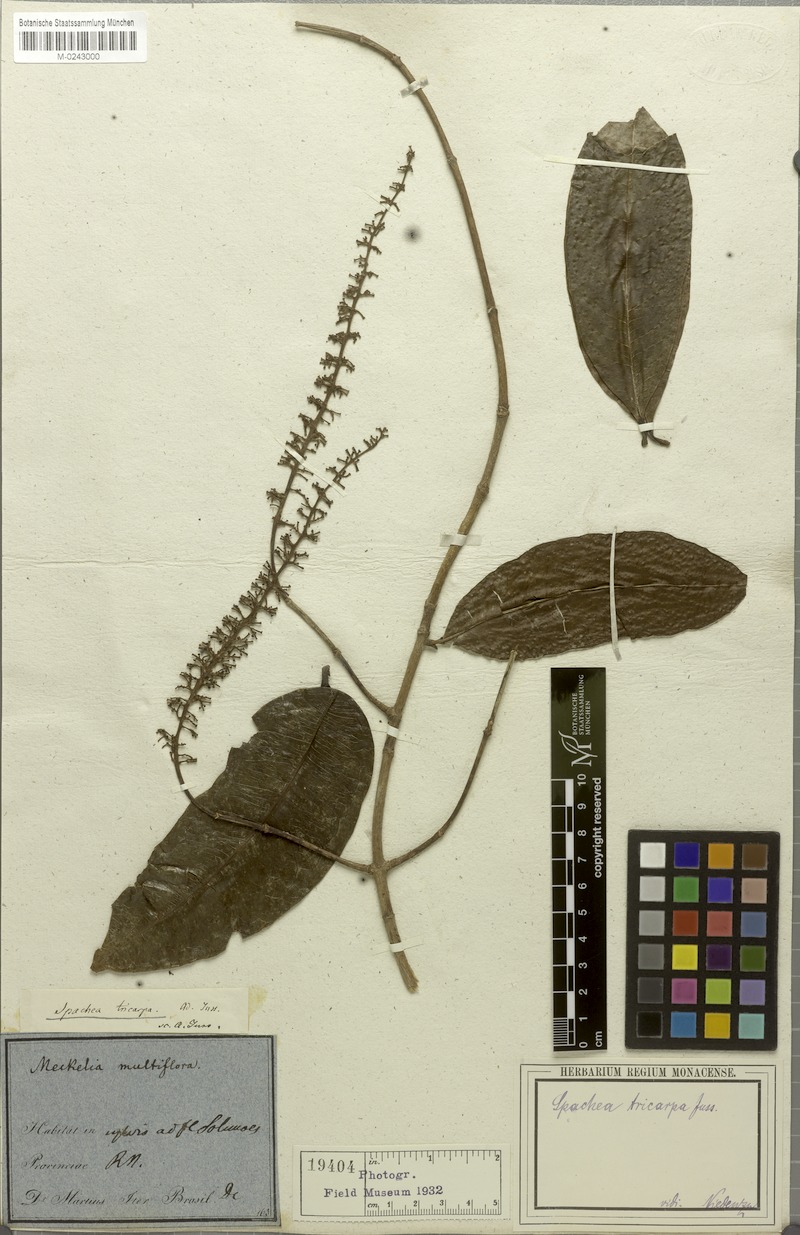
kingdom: Plantae
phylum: Tracheophyta
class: Magnoliopsida
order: Malpighiales
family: Malpighiaceae
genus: Spachea
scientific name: Spachea tricarpa
